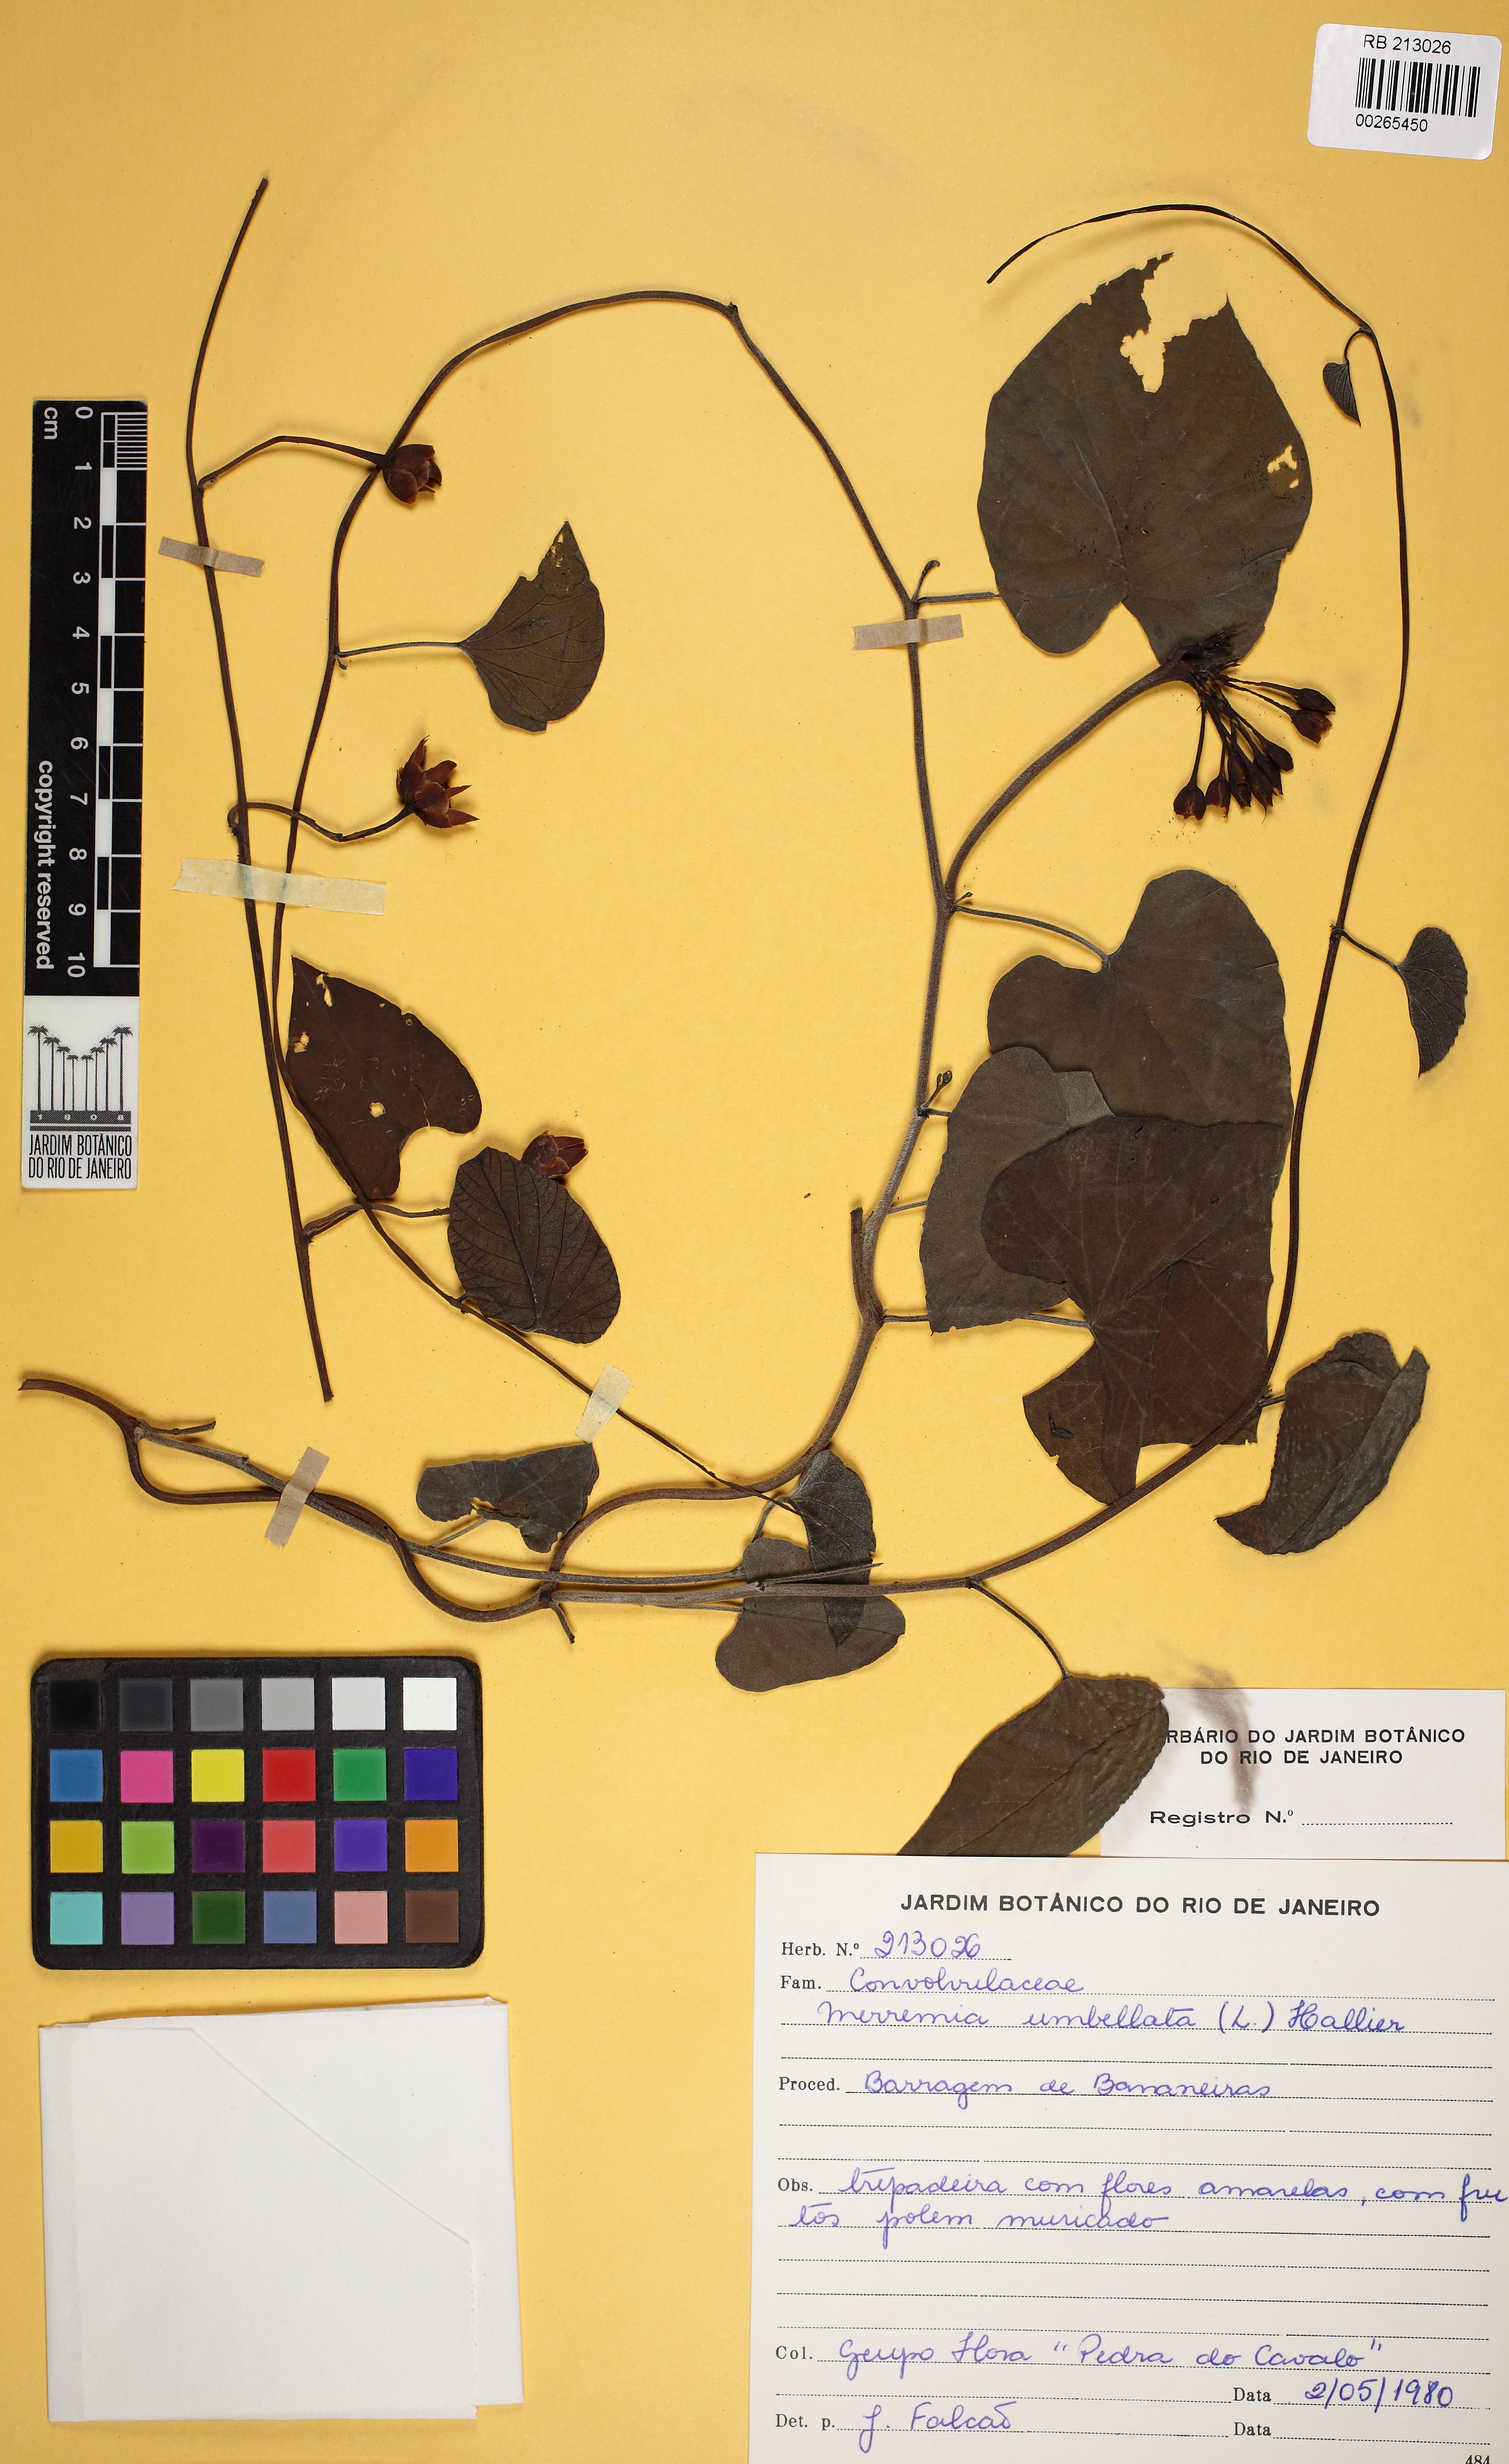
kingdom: Plantae
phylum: Tracheophyta
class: Magnoliopsida
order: Solanales
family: Convolvulaceae
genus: Camonea
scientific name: Camonea umbellata
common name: Hogvine
